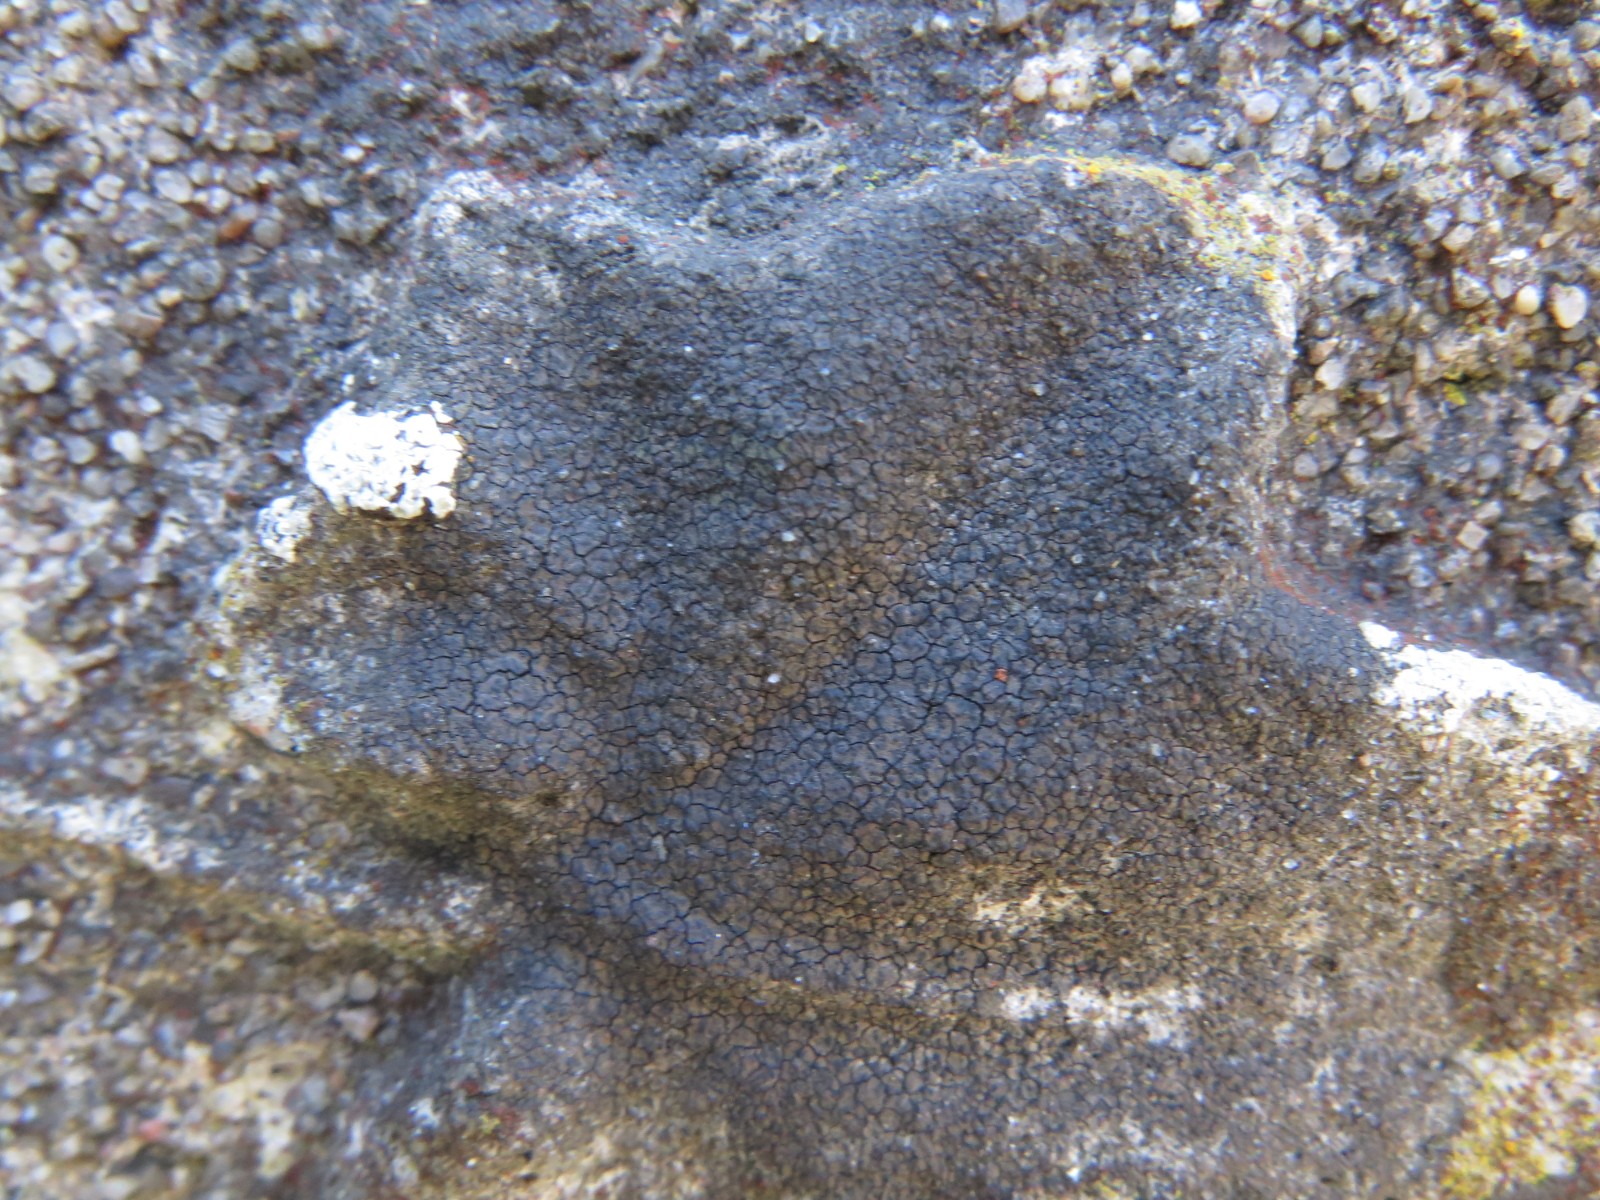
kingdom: Fungi
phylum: Ascomycota
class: Eurotiomycetes
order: Verrucariales
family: Verrucariaceae
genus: Verrucaria
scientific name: Verrucaria nigrescens
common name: sortbrun vortelav
